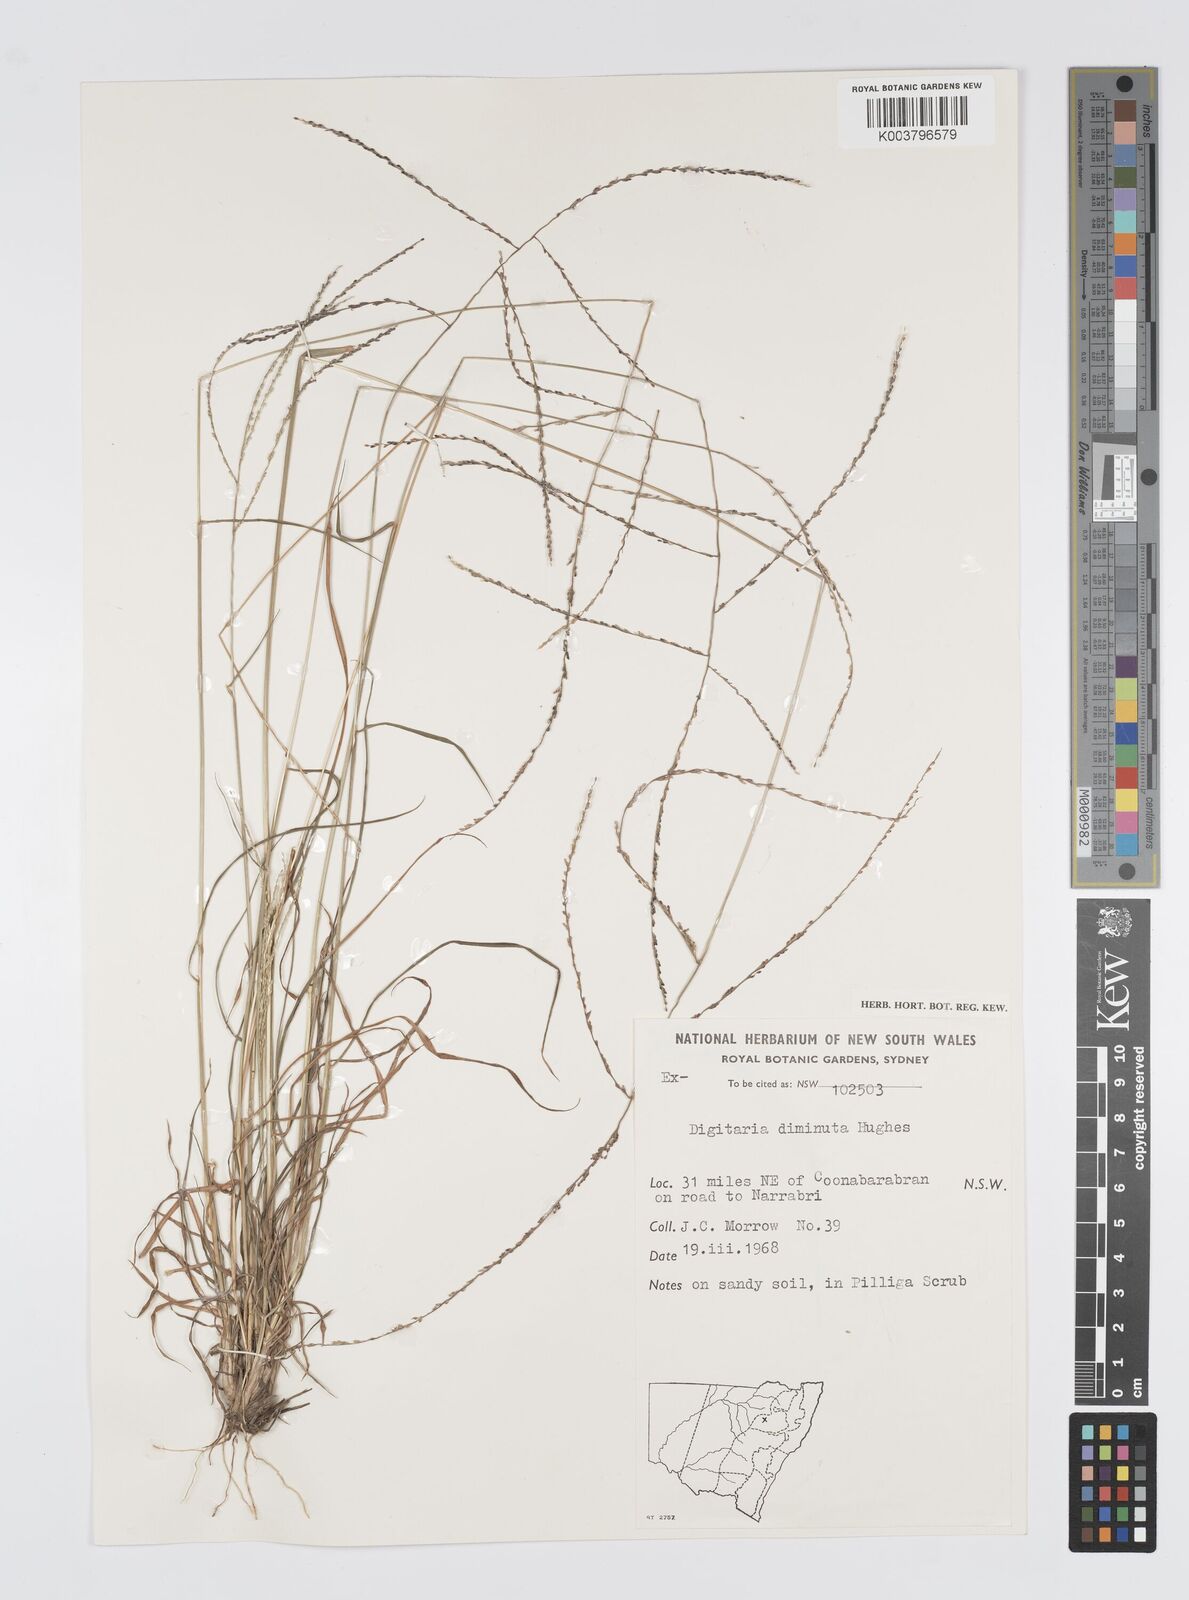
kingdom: Plantae
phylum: Tracheophyta
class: Liliopsida
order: Poales
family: Poaceae
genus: Digitaria
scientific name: Digitaria breviglumis
